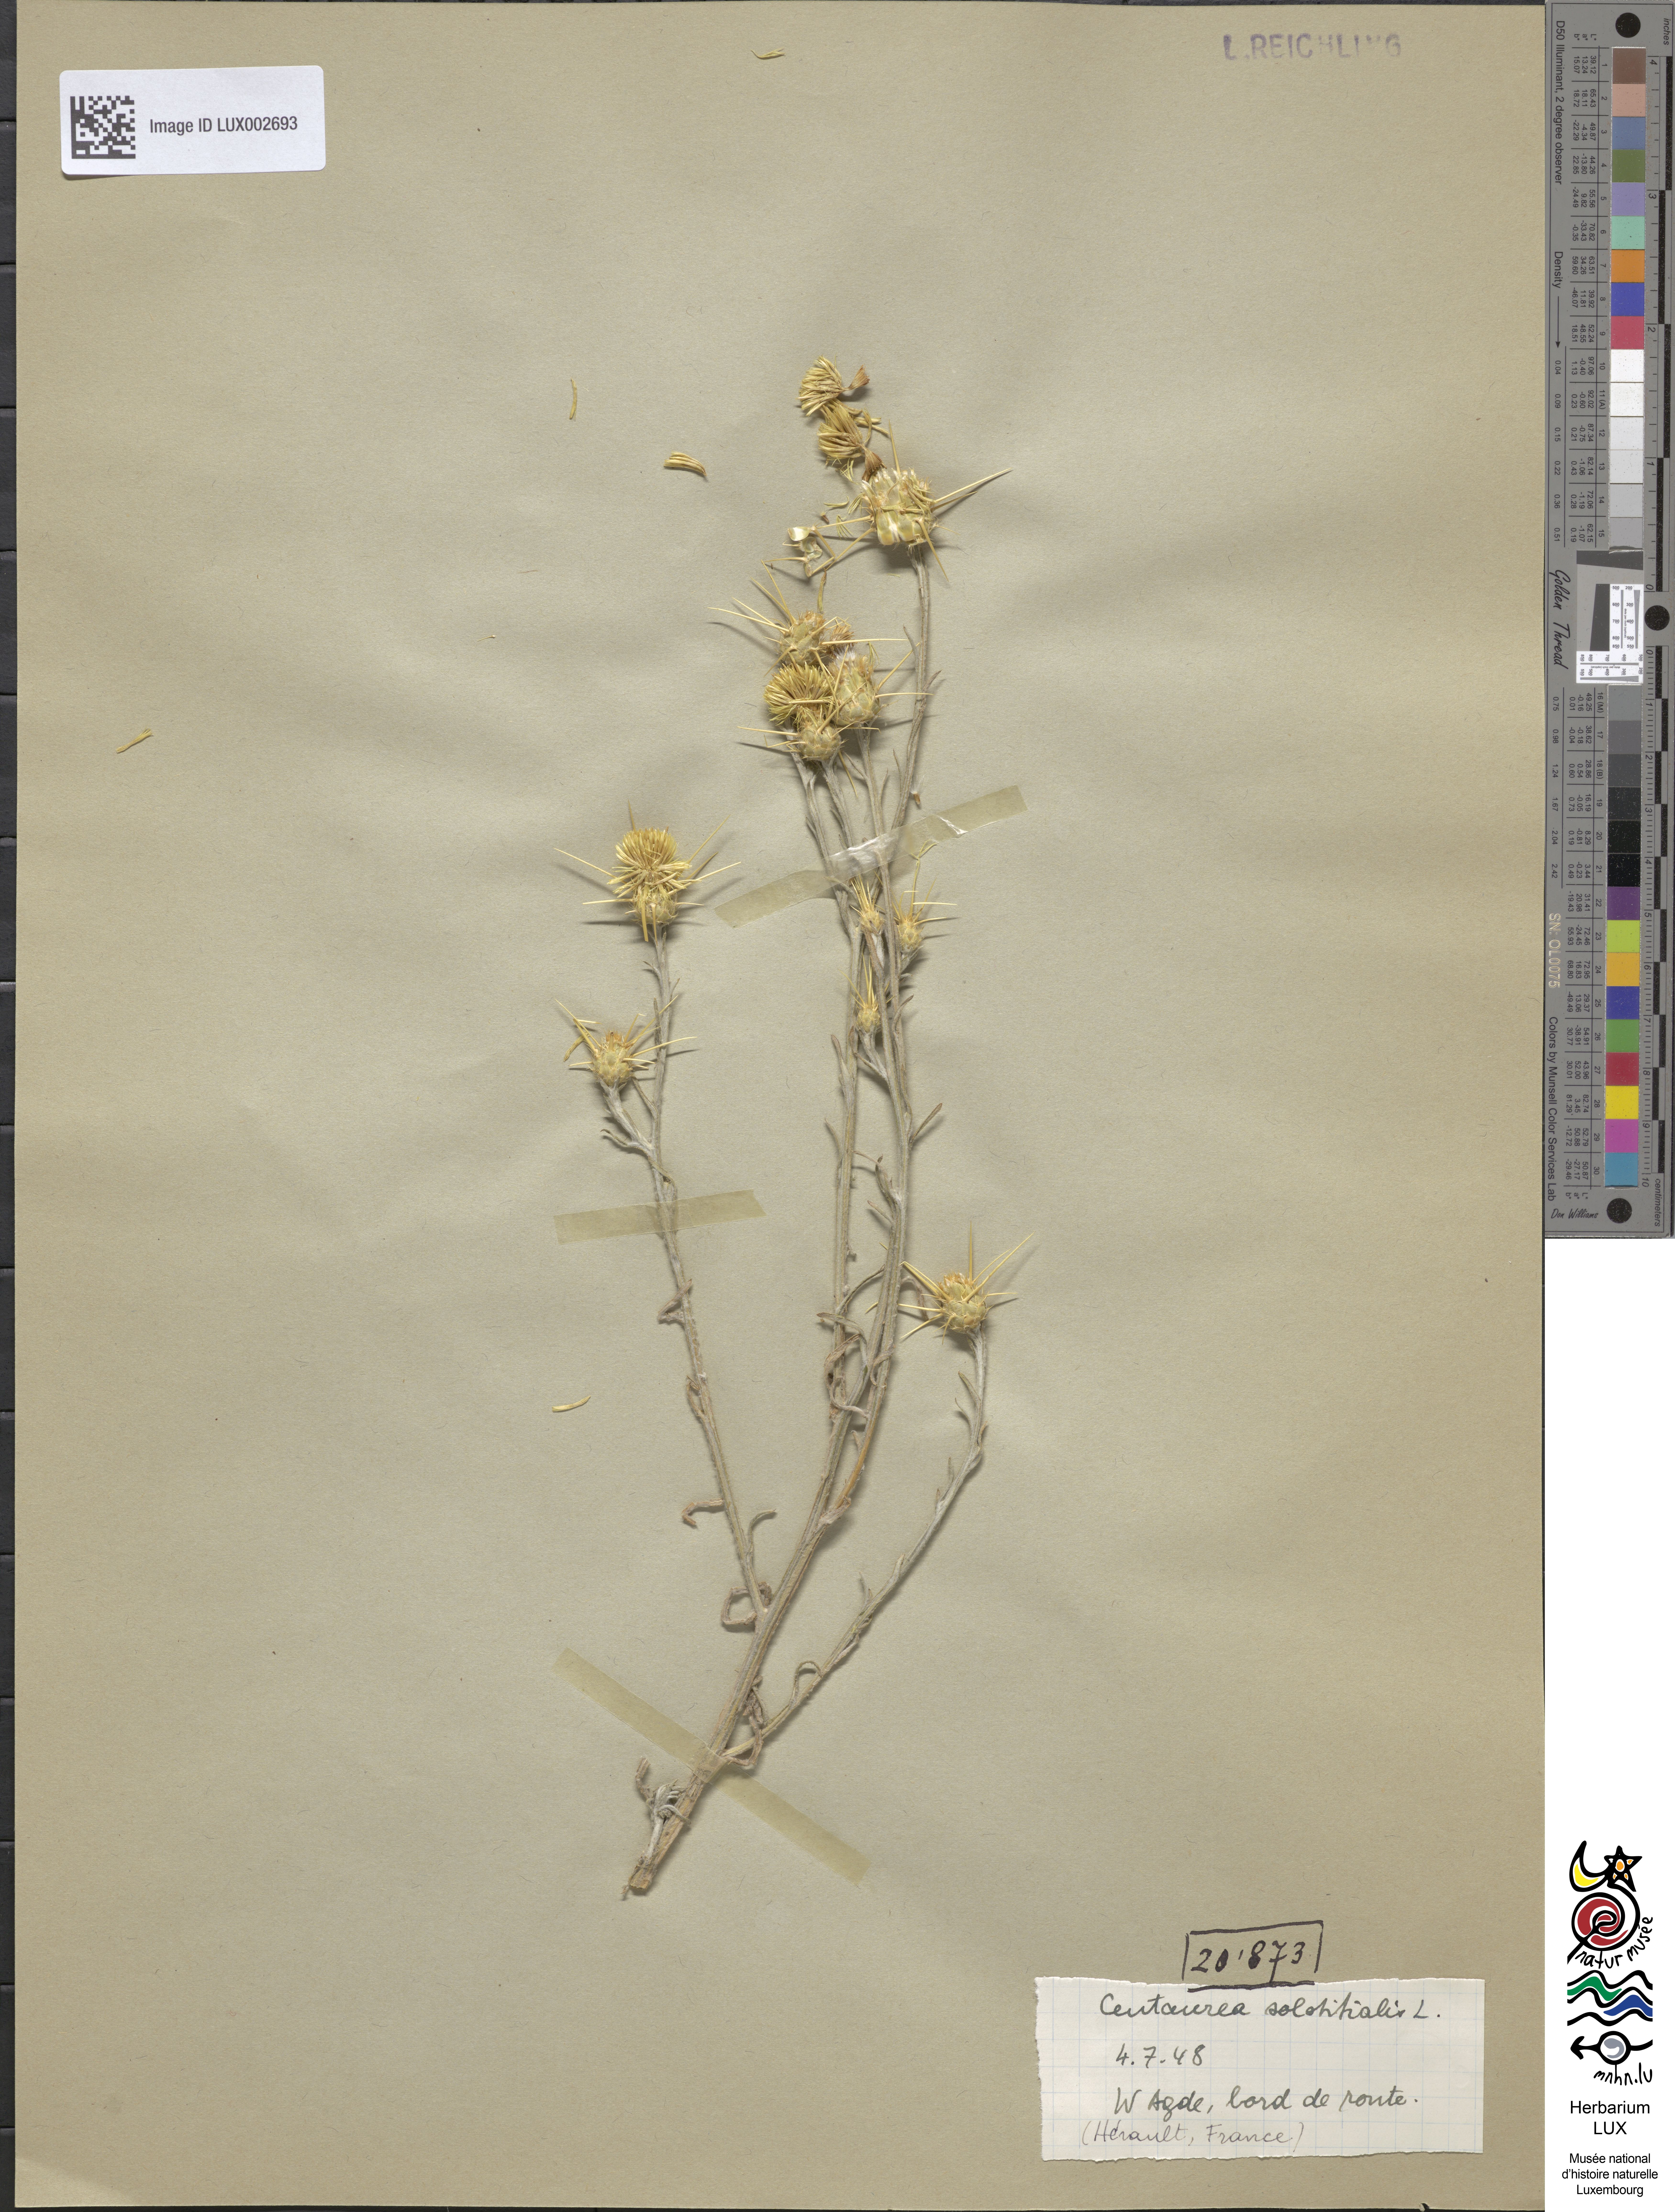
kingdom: Plantae
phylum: Tracheophyta
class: Magnoliopsida
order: Asterales
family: Asteraceae
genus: Centaurea
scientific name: Centaurea solstitialis
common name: Yellow star-thistle
